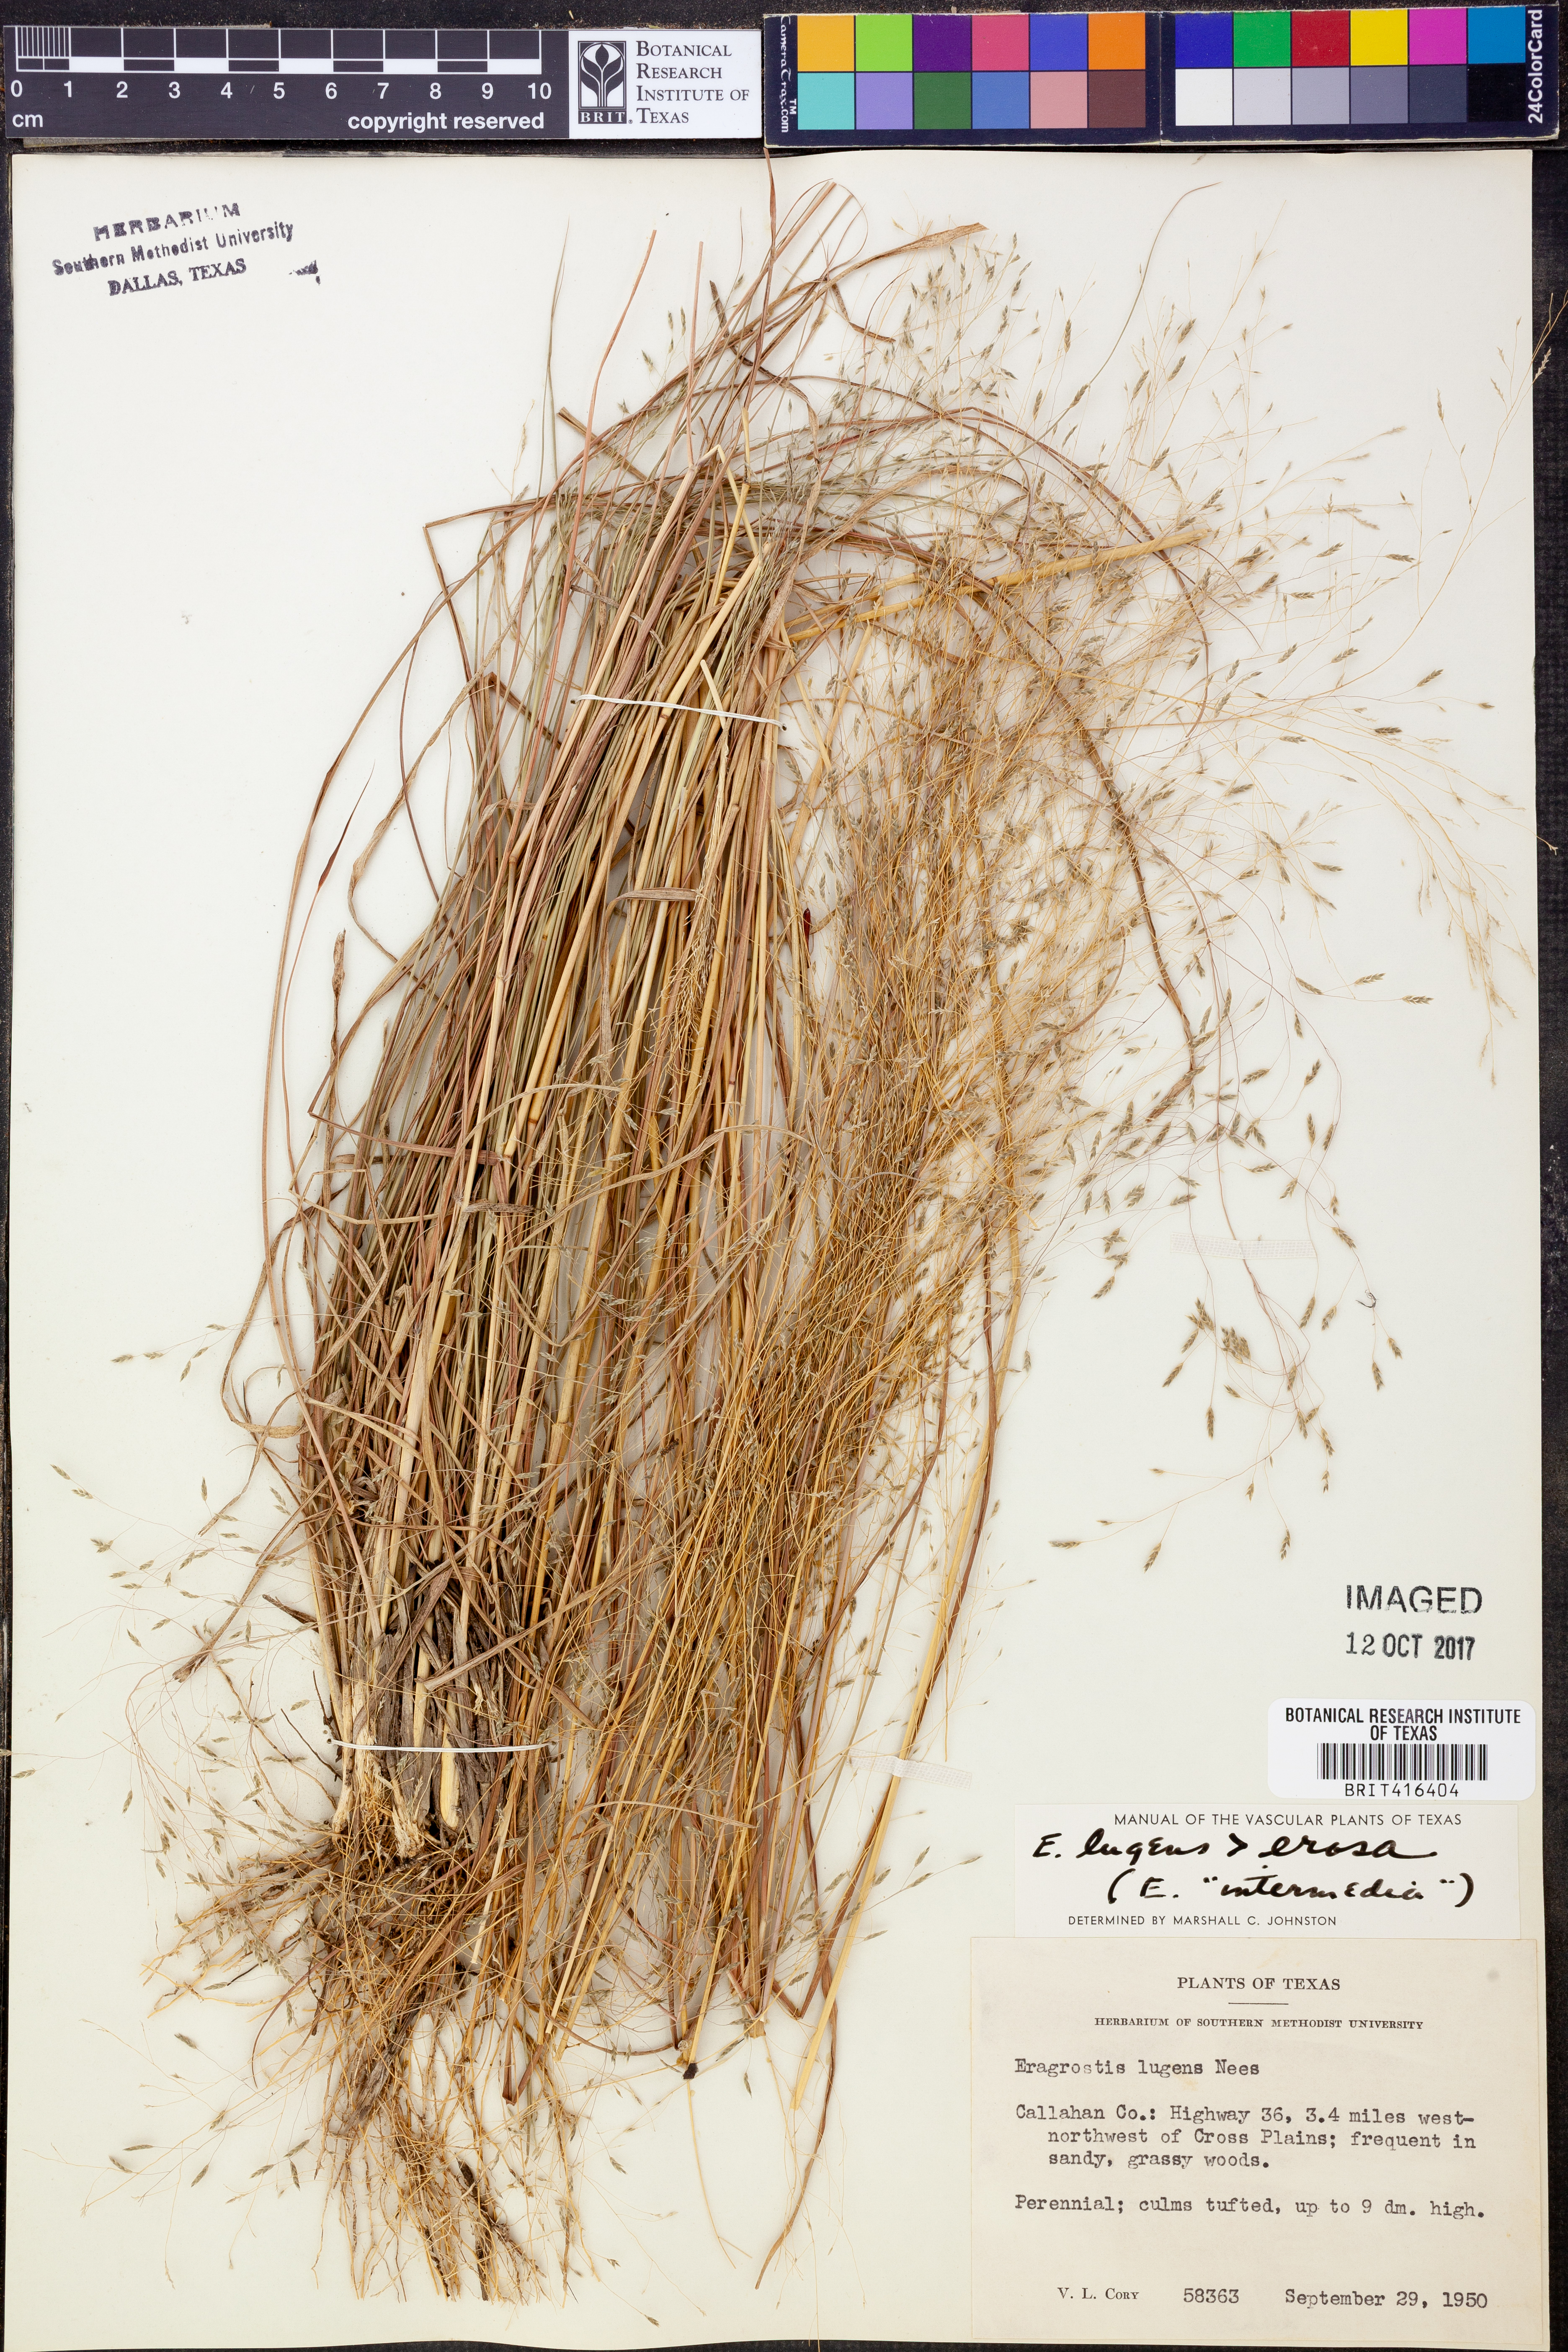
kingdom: Plantae
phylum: Tracheophyta
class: Liliopsida
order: Poales
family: Poaceae
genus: Eragrostis
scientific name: Eragrostis capillaris
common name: Hair-like lovegrass
